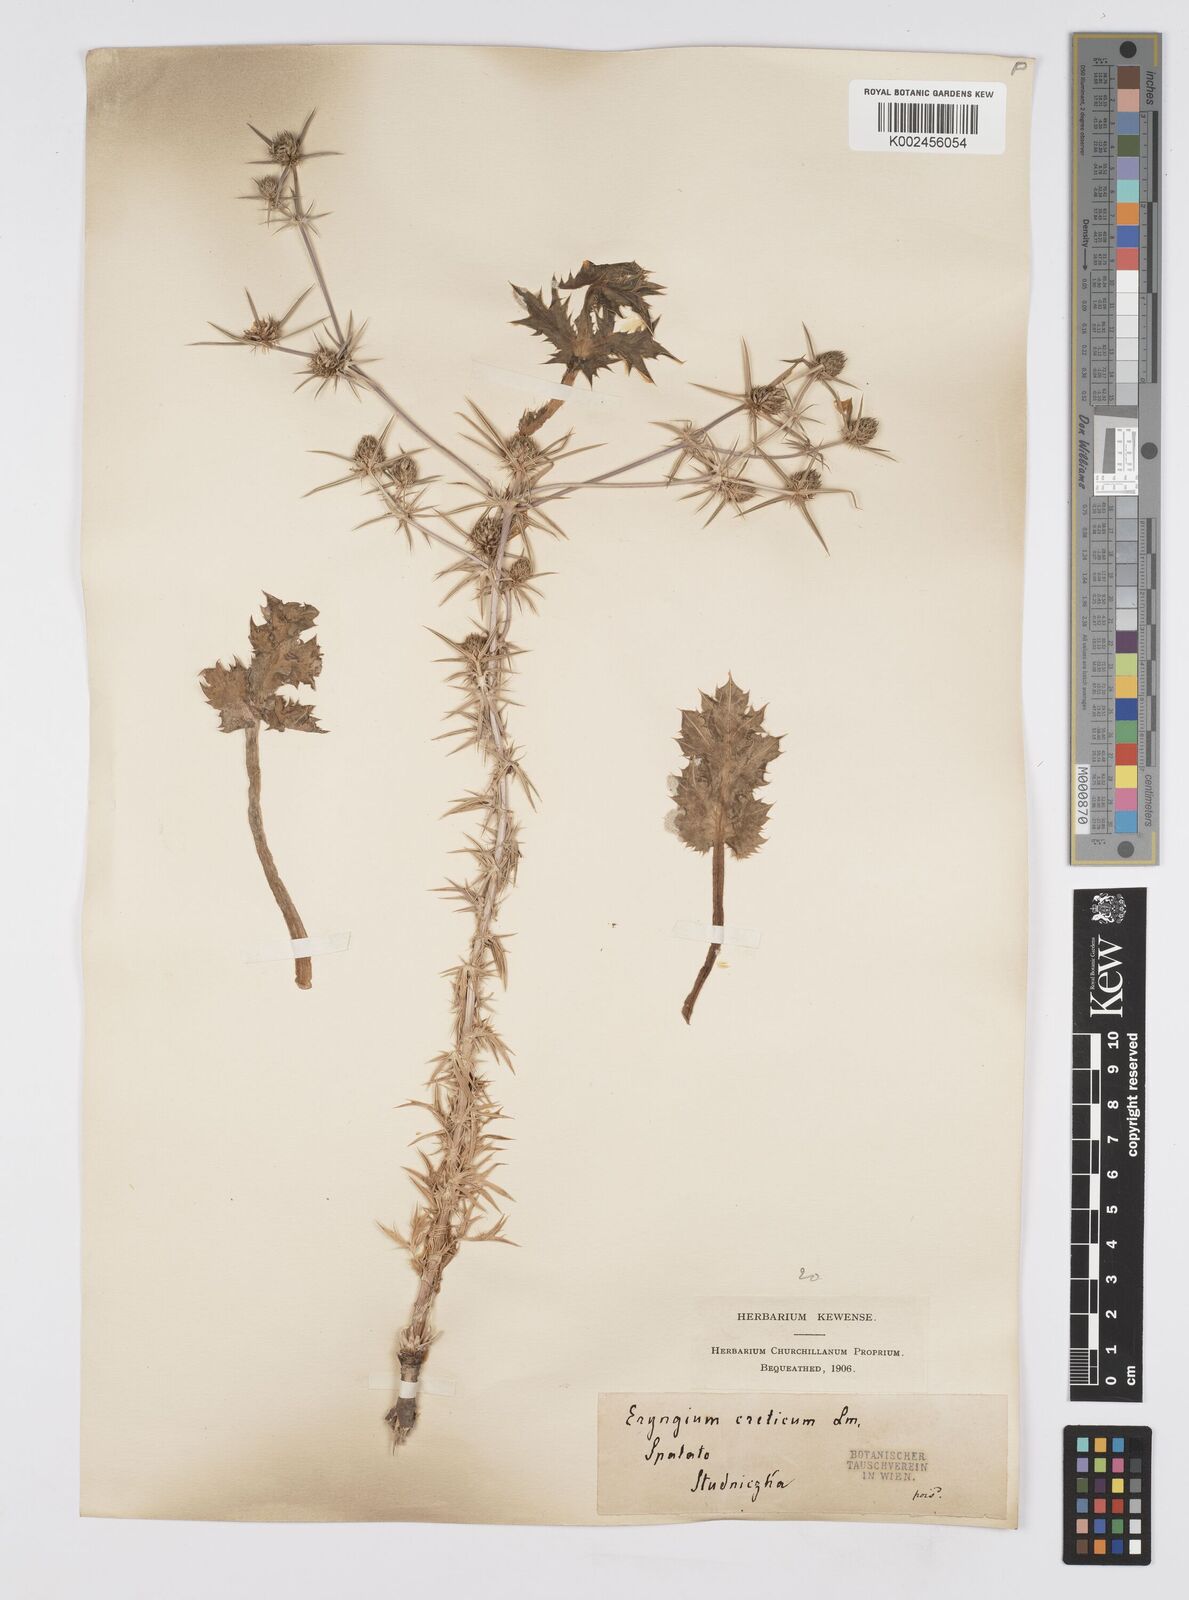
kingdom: Plantae
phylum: Tracheophyta
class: Magnoliopsida
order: Apiales
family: Apiaceae
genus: Eryngium
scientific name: Eryngium creticum
